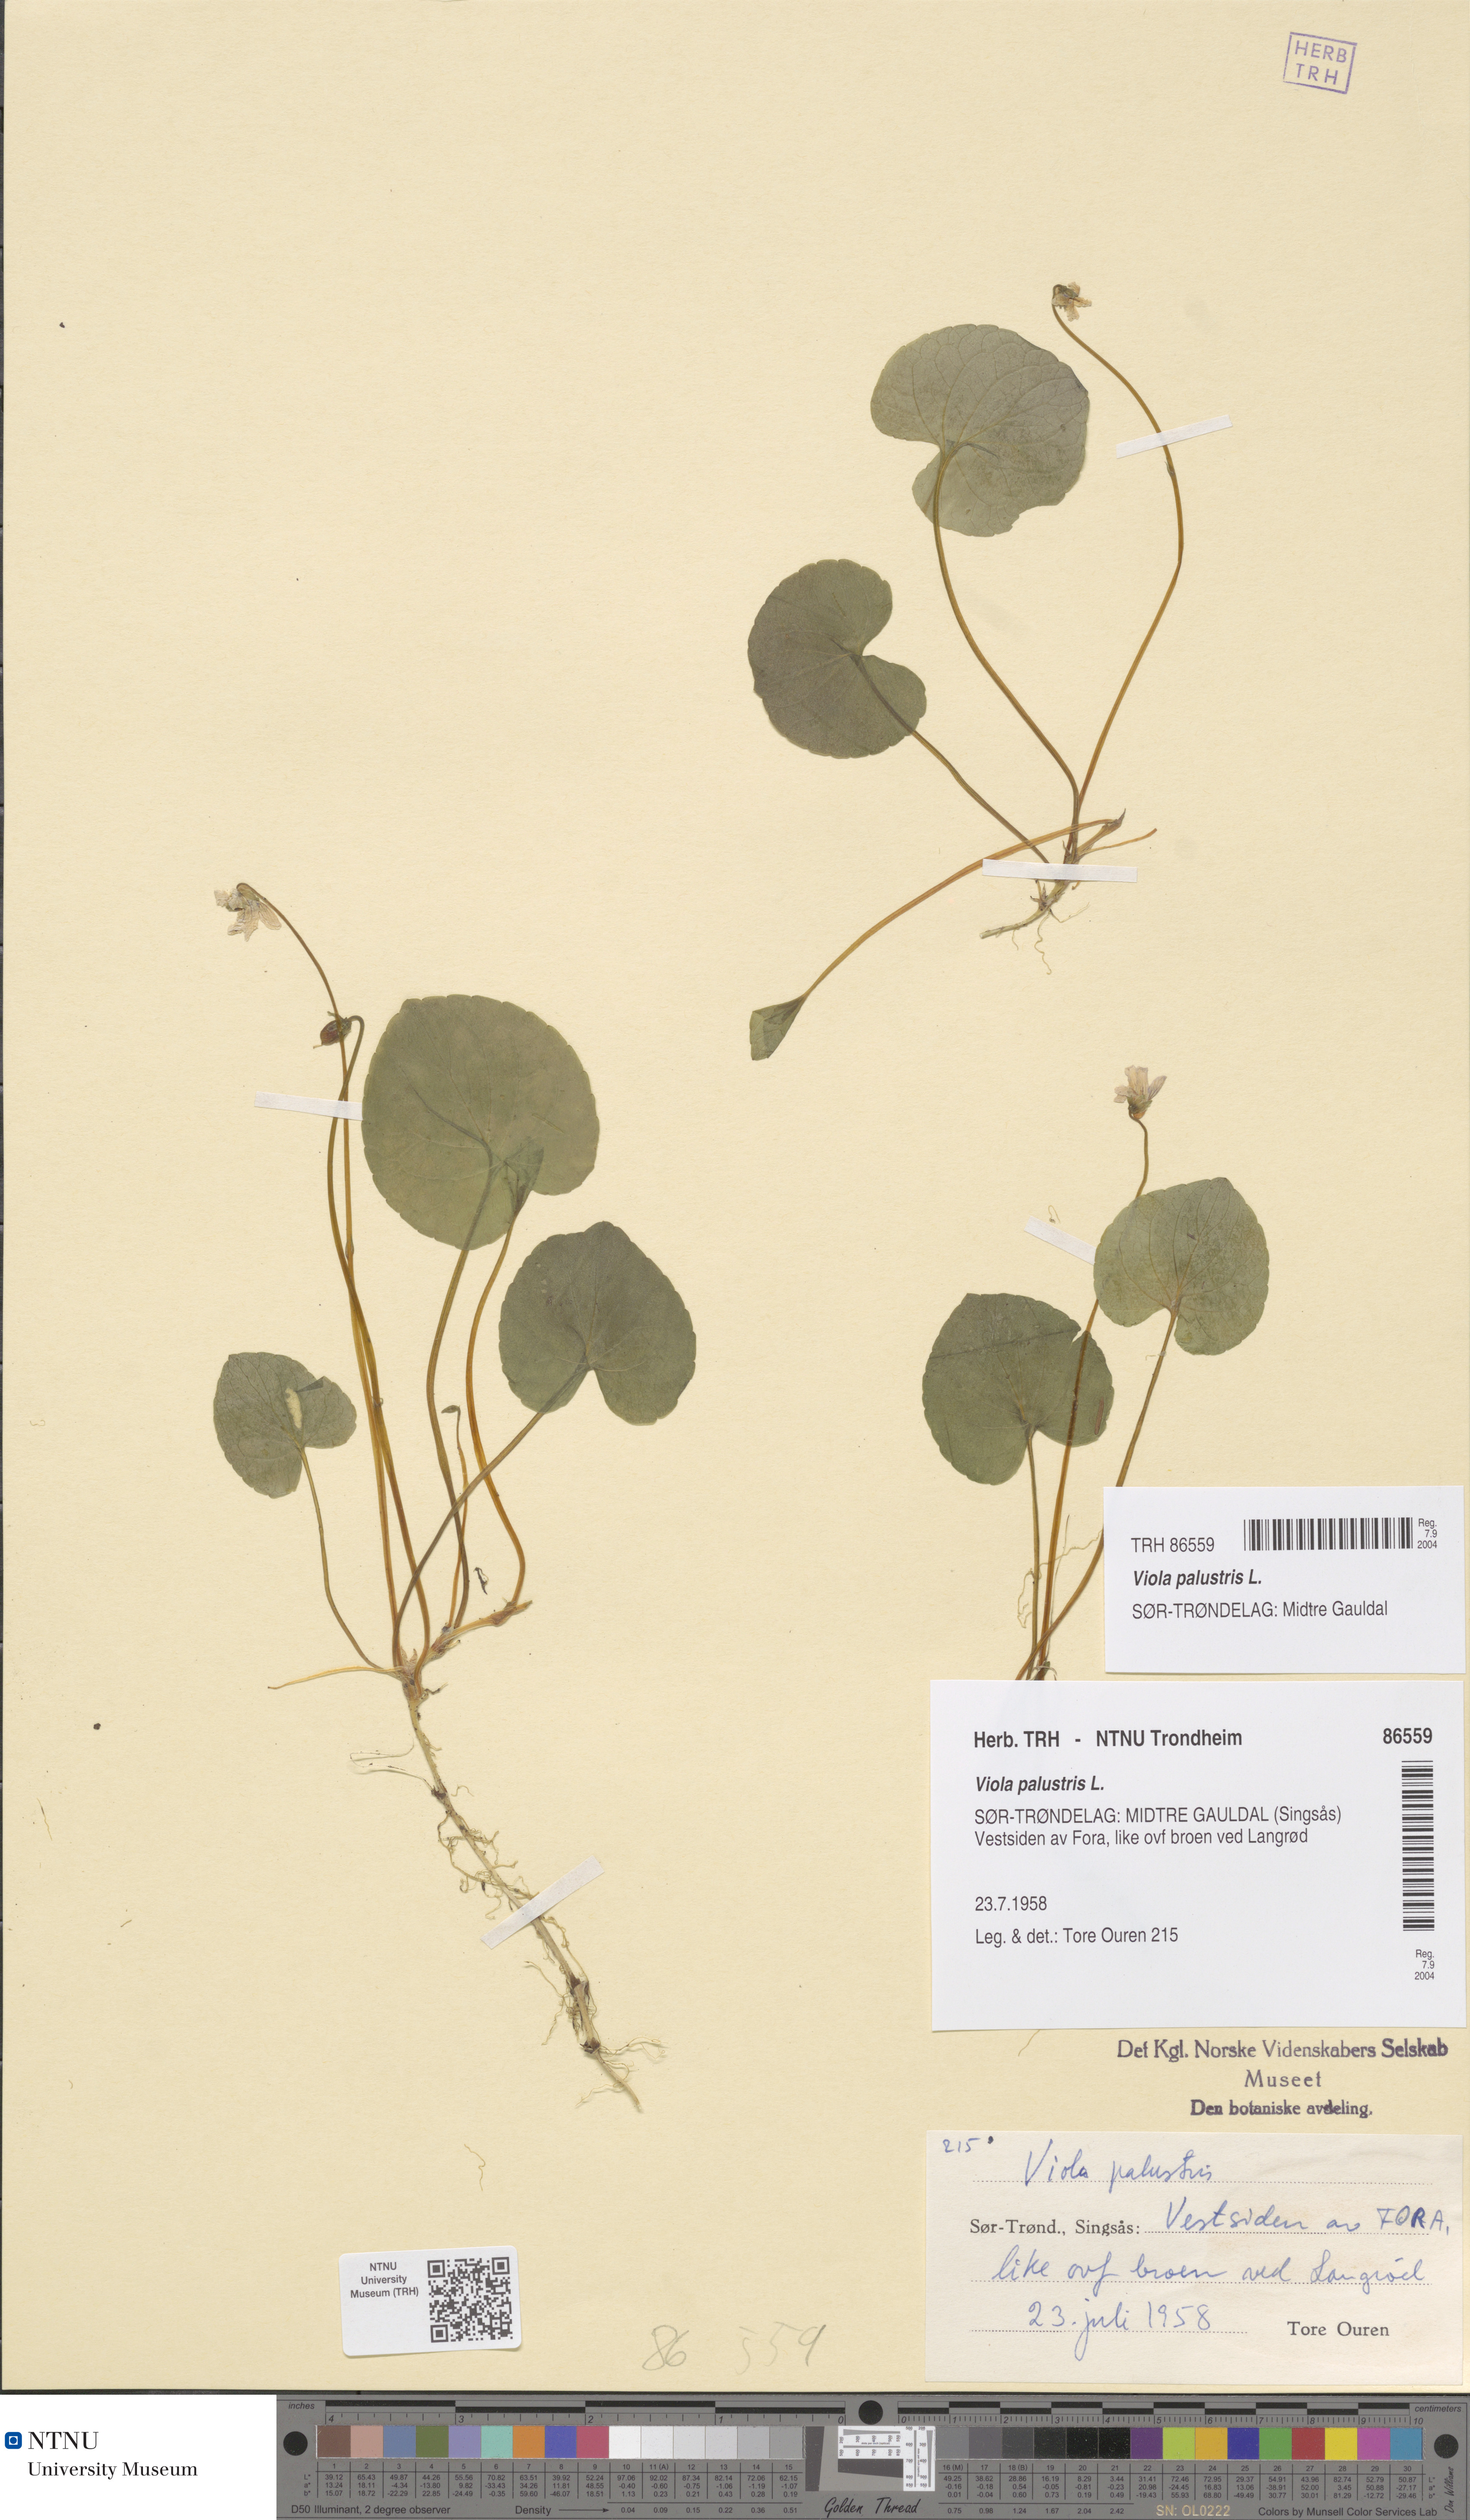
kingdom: Plantae
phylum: Tracheophyta
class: Magnoliopsida
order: Malpighiales
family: Violaceae
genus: Viola
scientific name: Viola palustris
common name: Marsh violet
